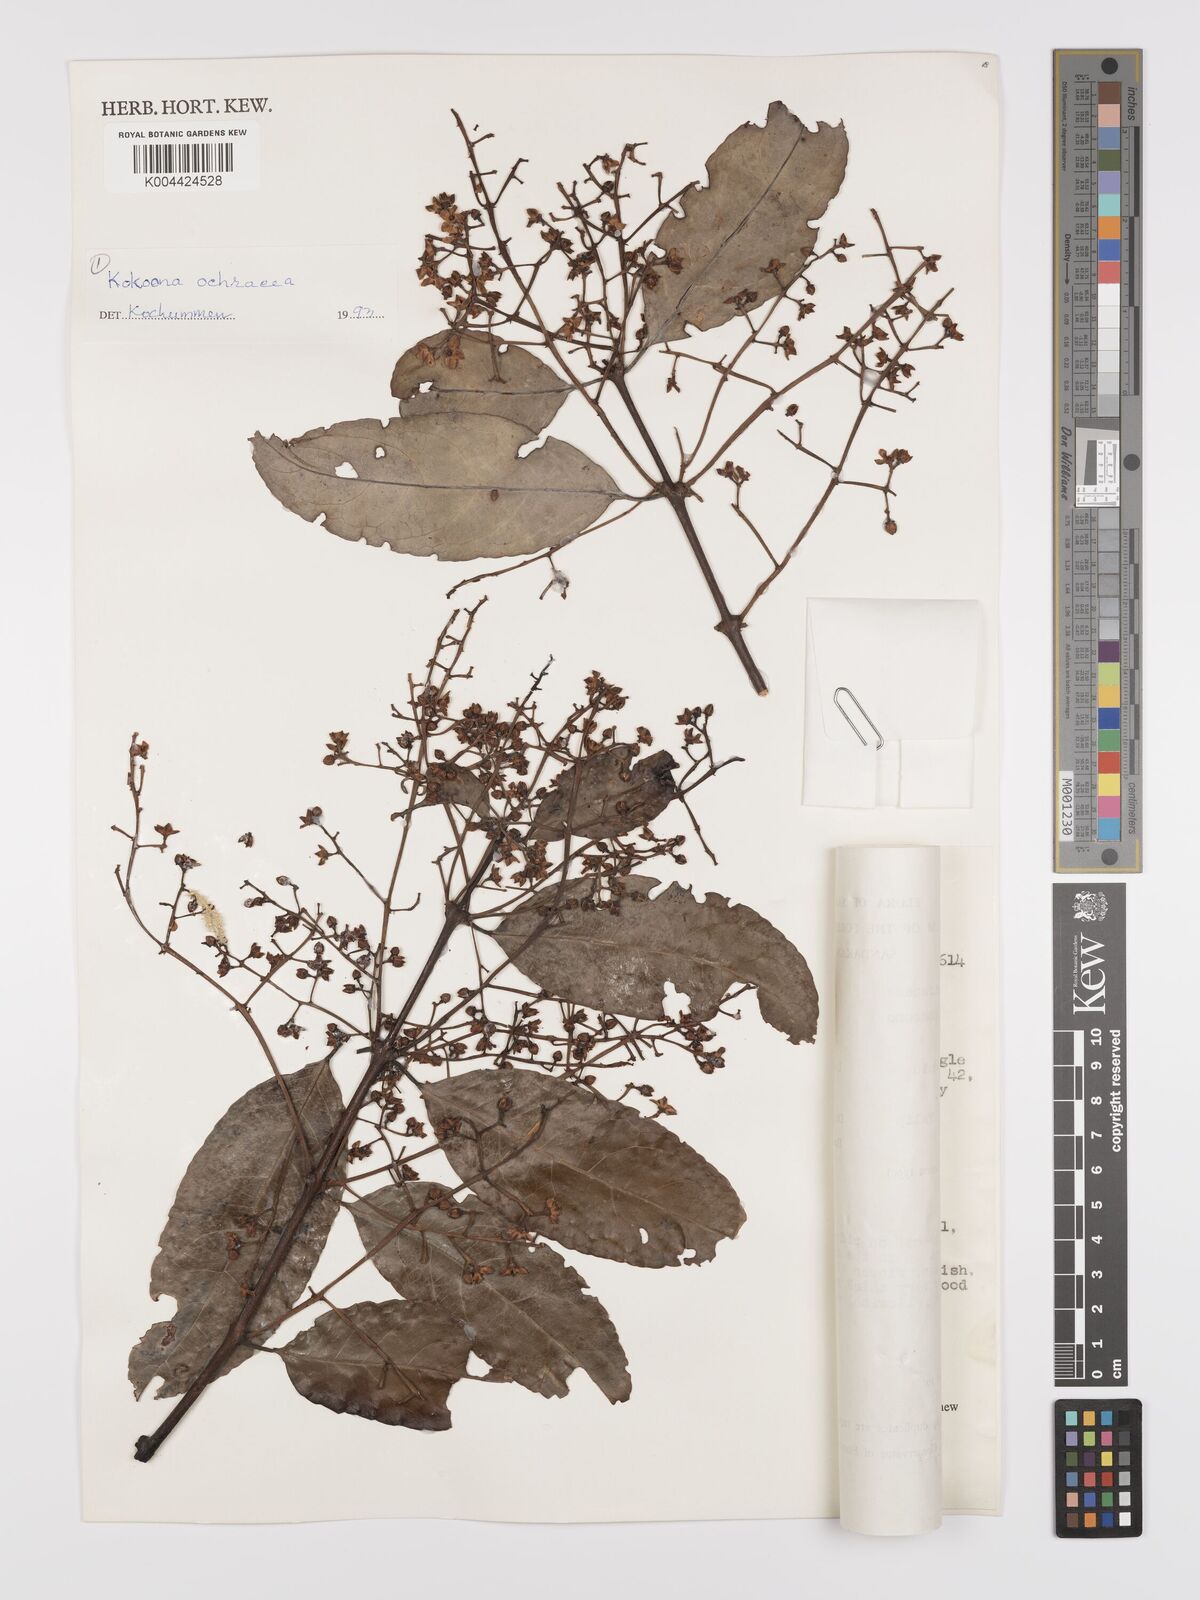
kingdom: Plantae
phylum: Tracheophyta
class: Magnoliopsida
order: Celastrales
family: Celastraceae
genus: Kokoona
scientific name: Kokoona ochracea
